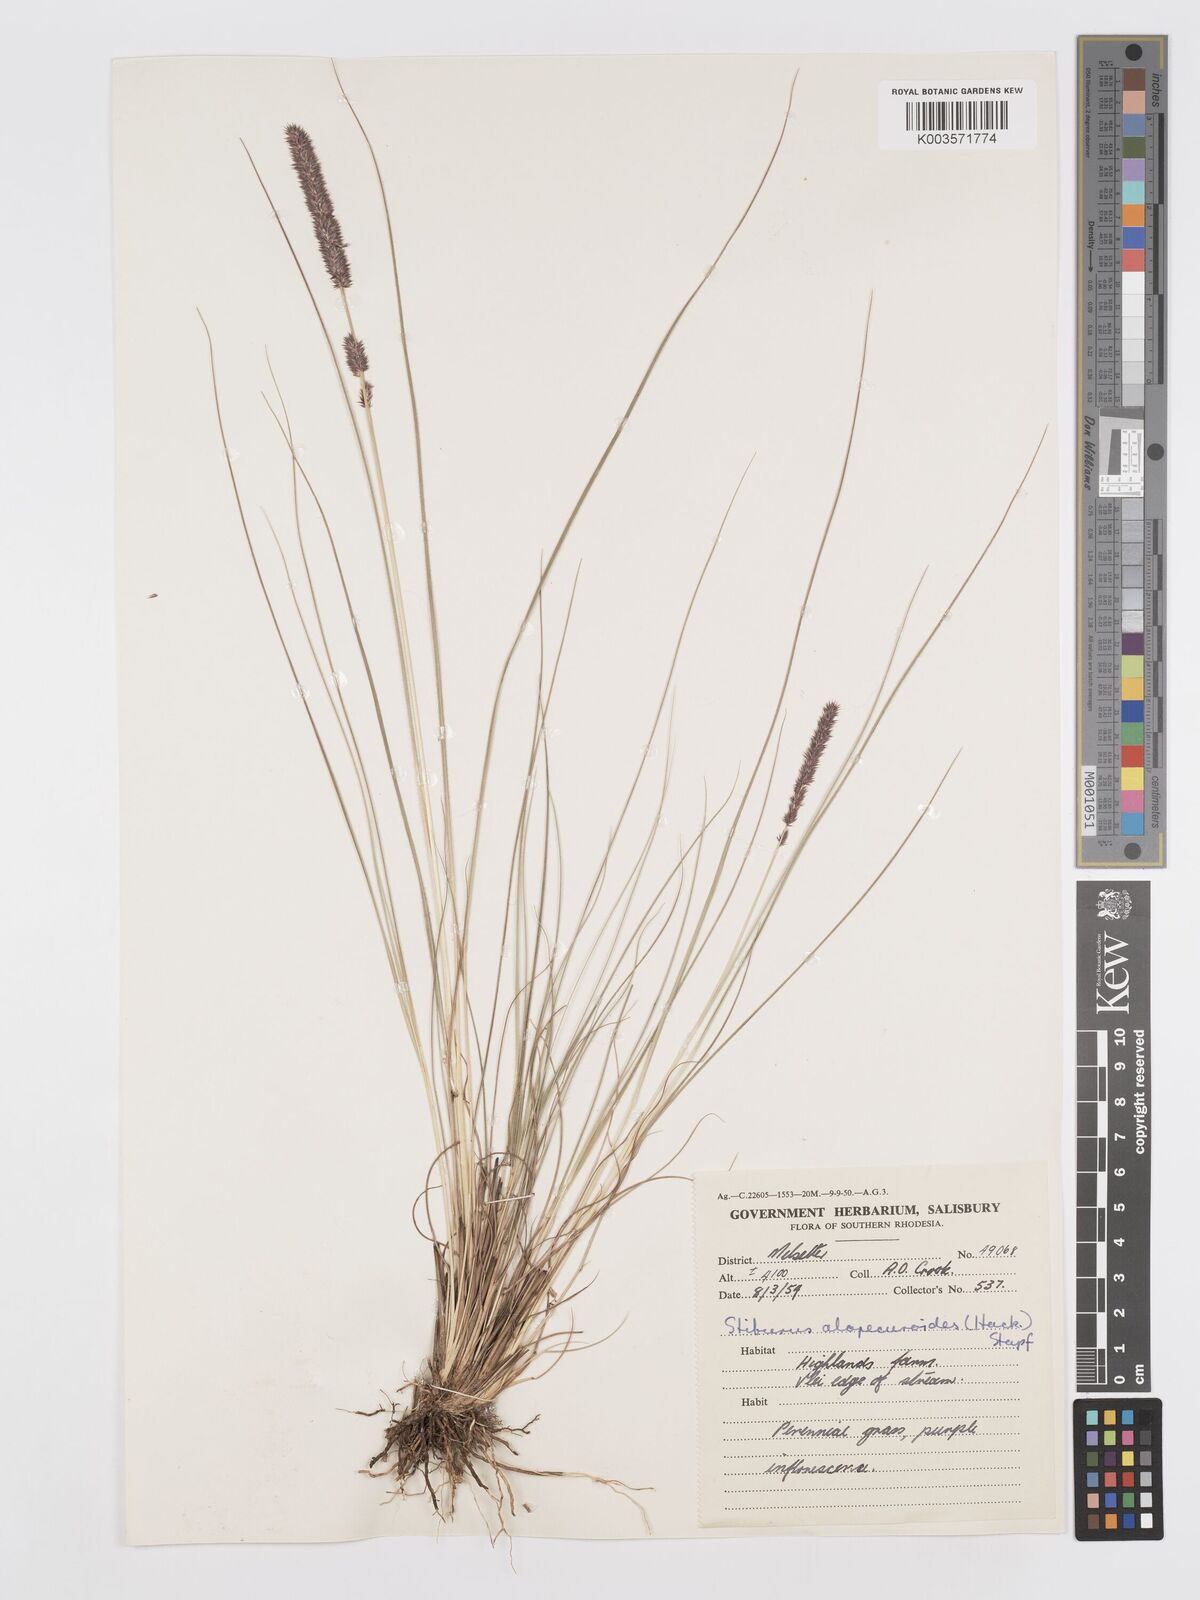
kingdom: Plantae
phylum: Tracheophyta
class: Liliopsida
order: Poales
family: Poaceae
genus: Stiburus
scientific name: Stiburus alopecuroides
